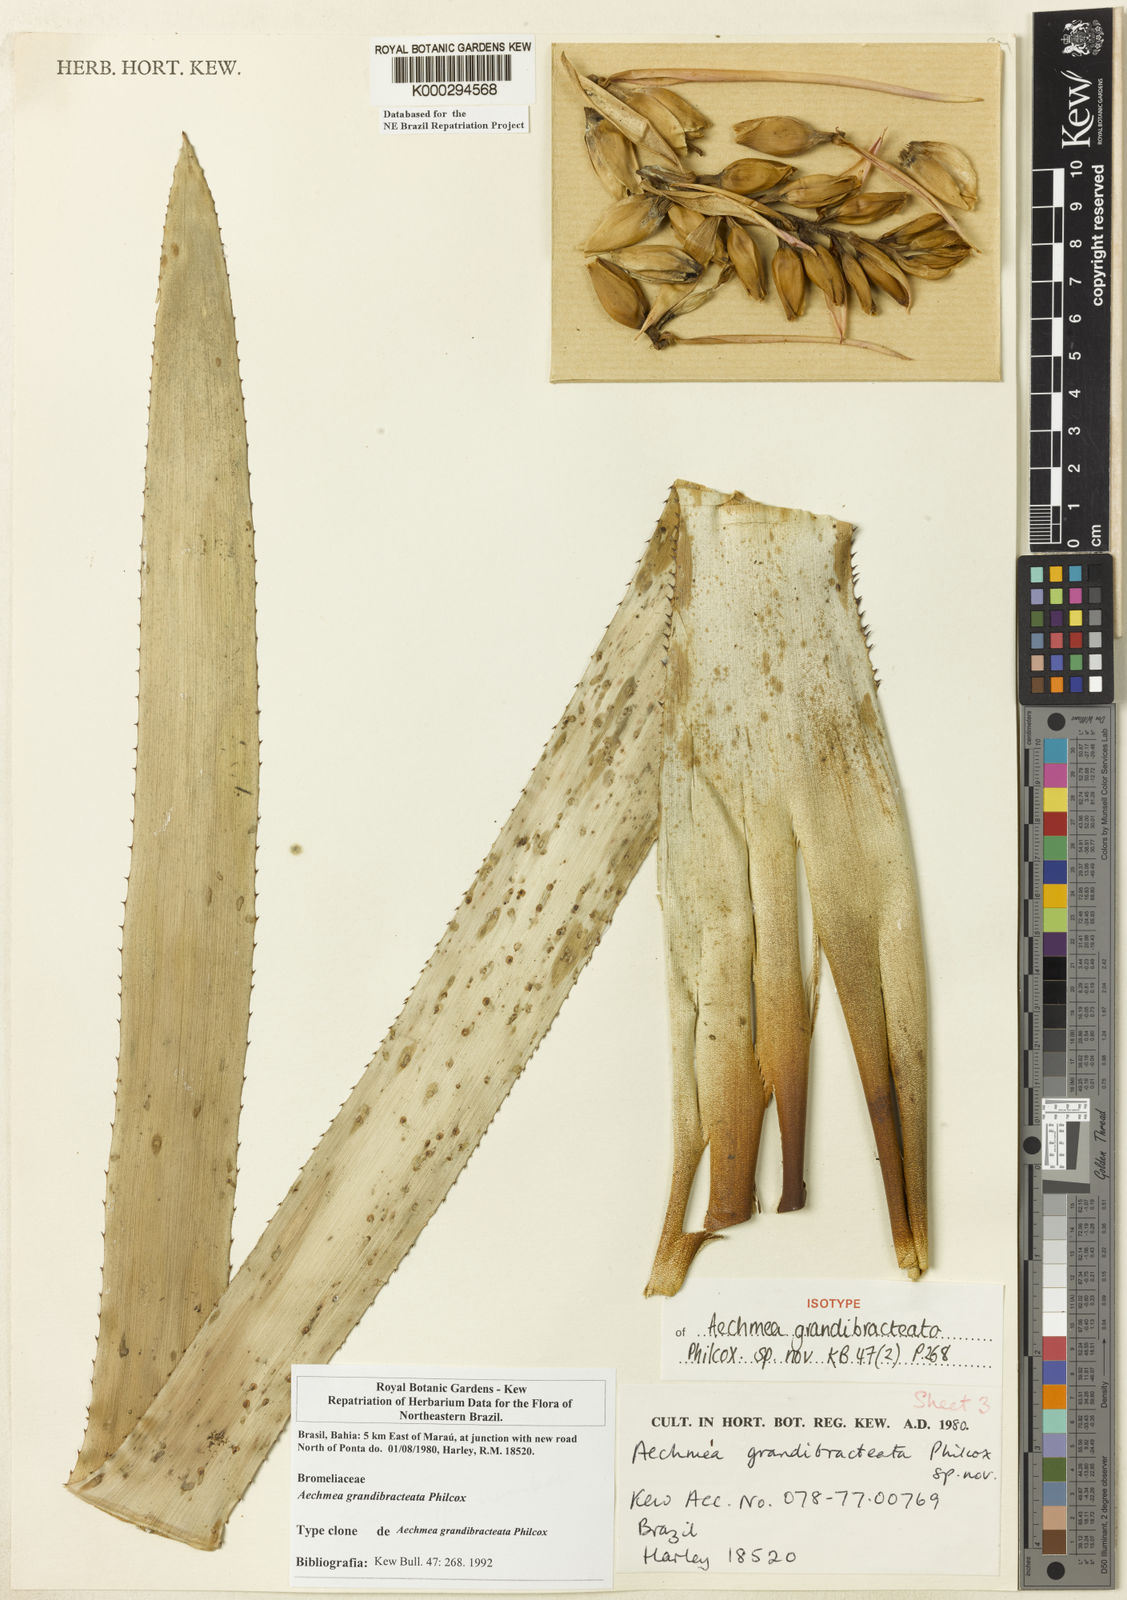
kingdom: Plantae
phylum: Tracheophyta
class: Liliopsida
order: Poales
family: Bromeliaceae
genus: Aechmea
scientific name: Aechmea marauensis
